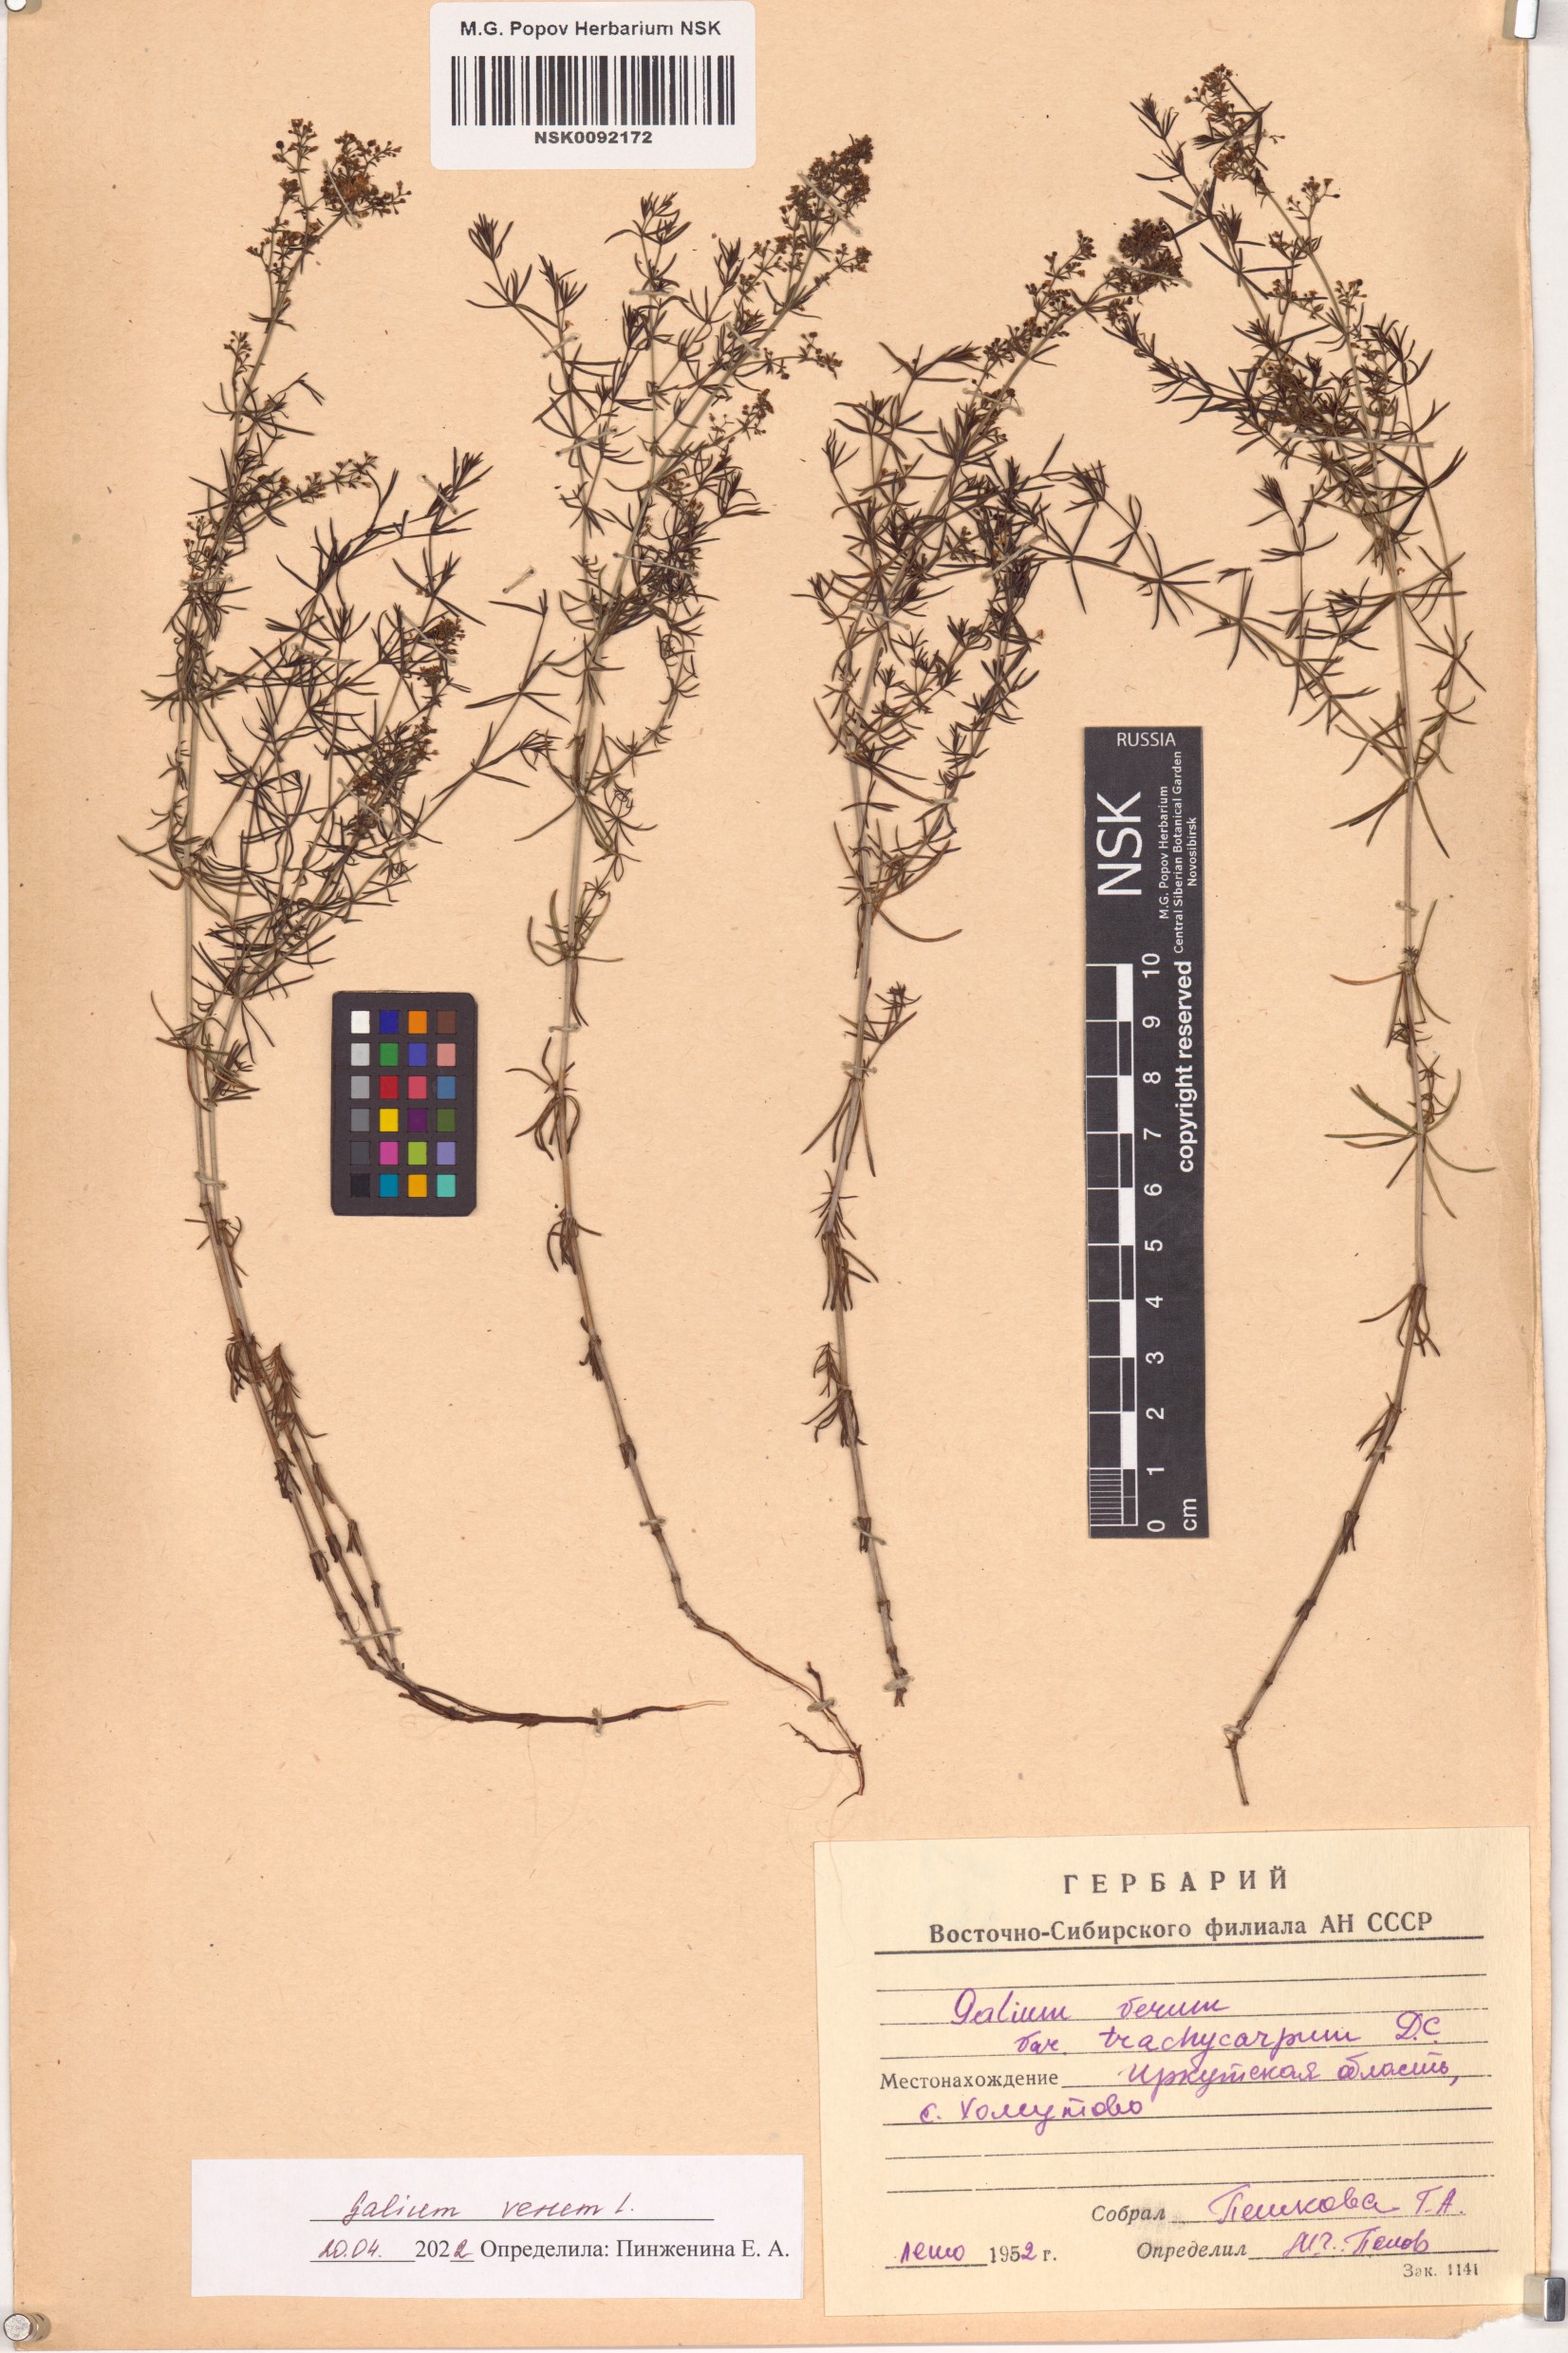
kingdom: Plantae
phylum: Tracheophyta
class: Magnoliopsida
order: Gentianales
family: Rubiaceae
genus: Galium
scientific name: Galium verum
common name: Lady's bedstraw
